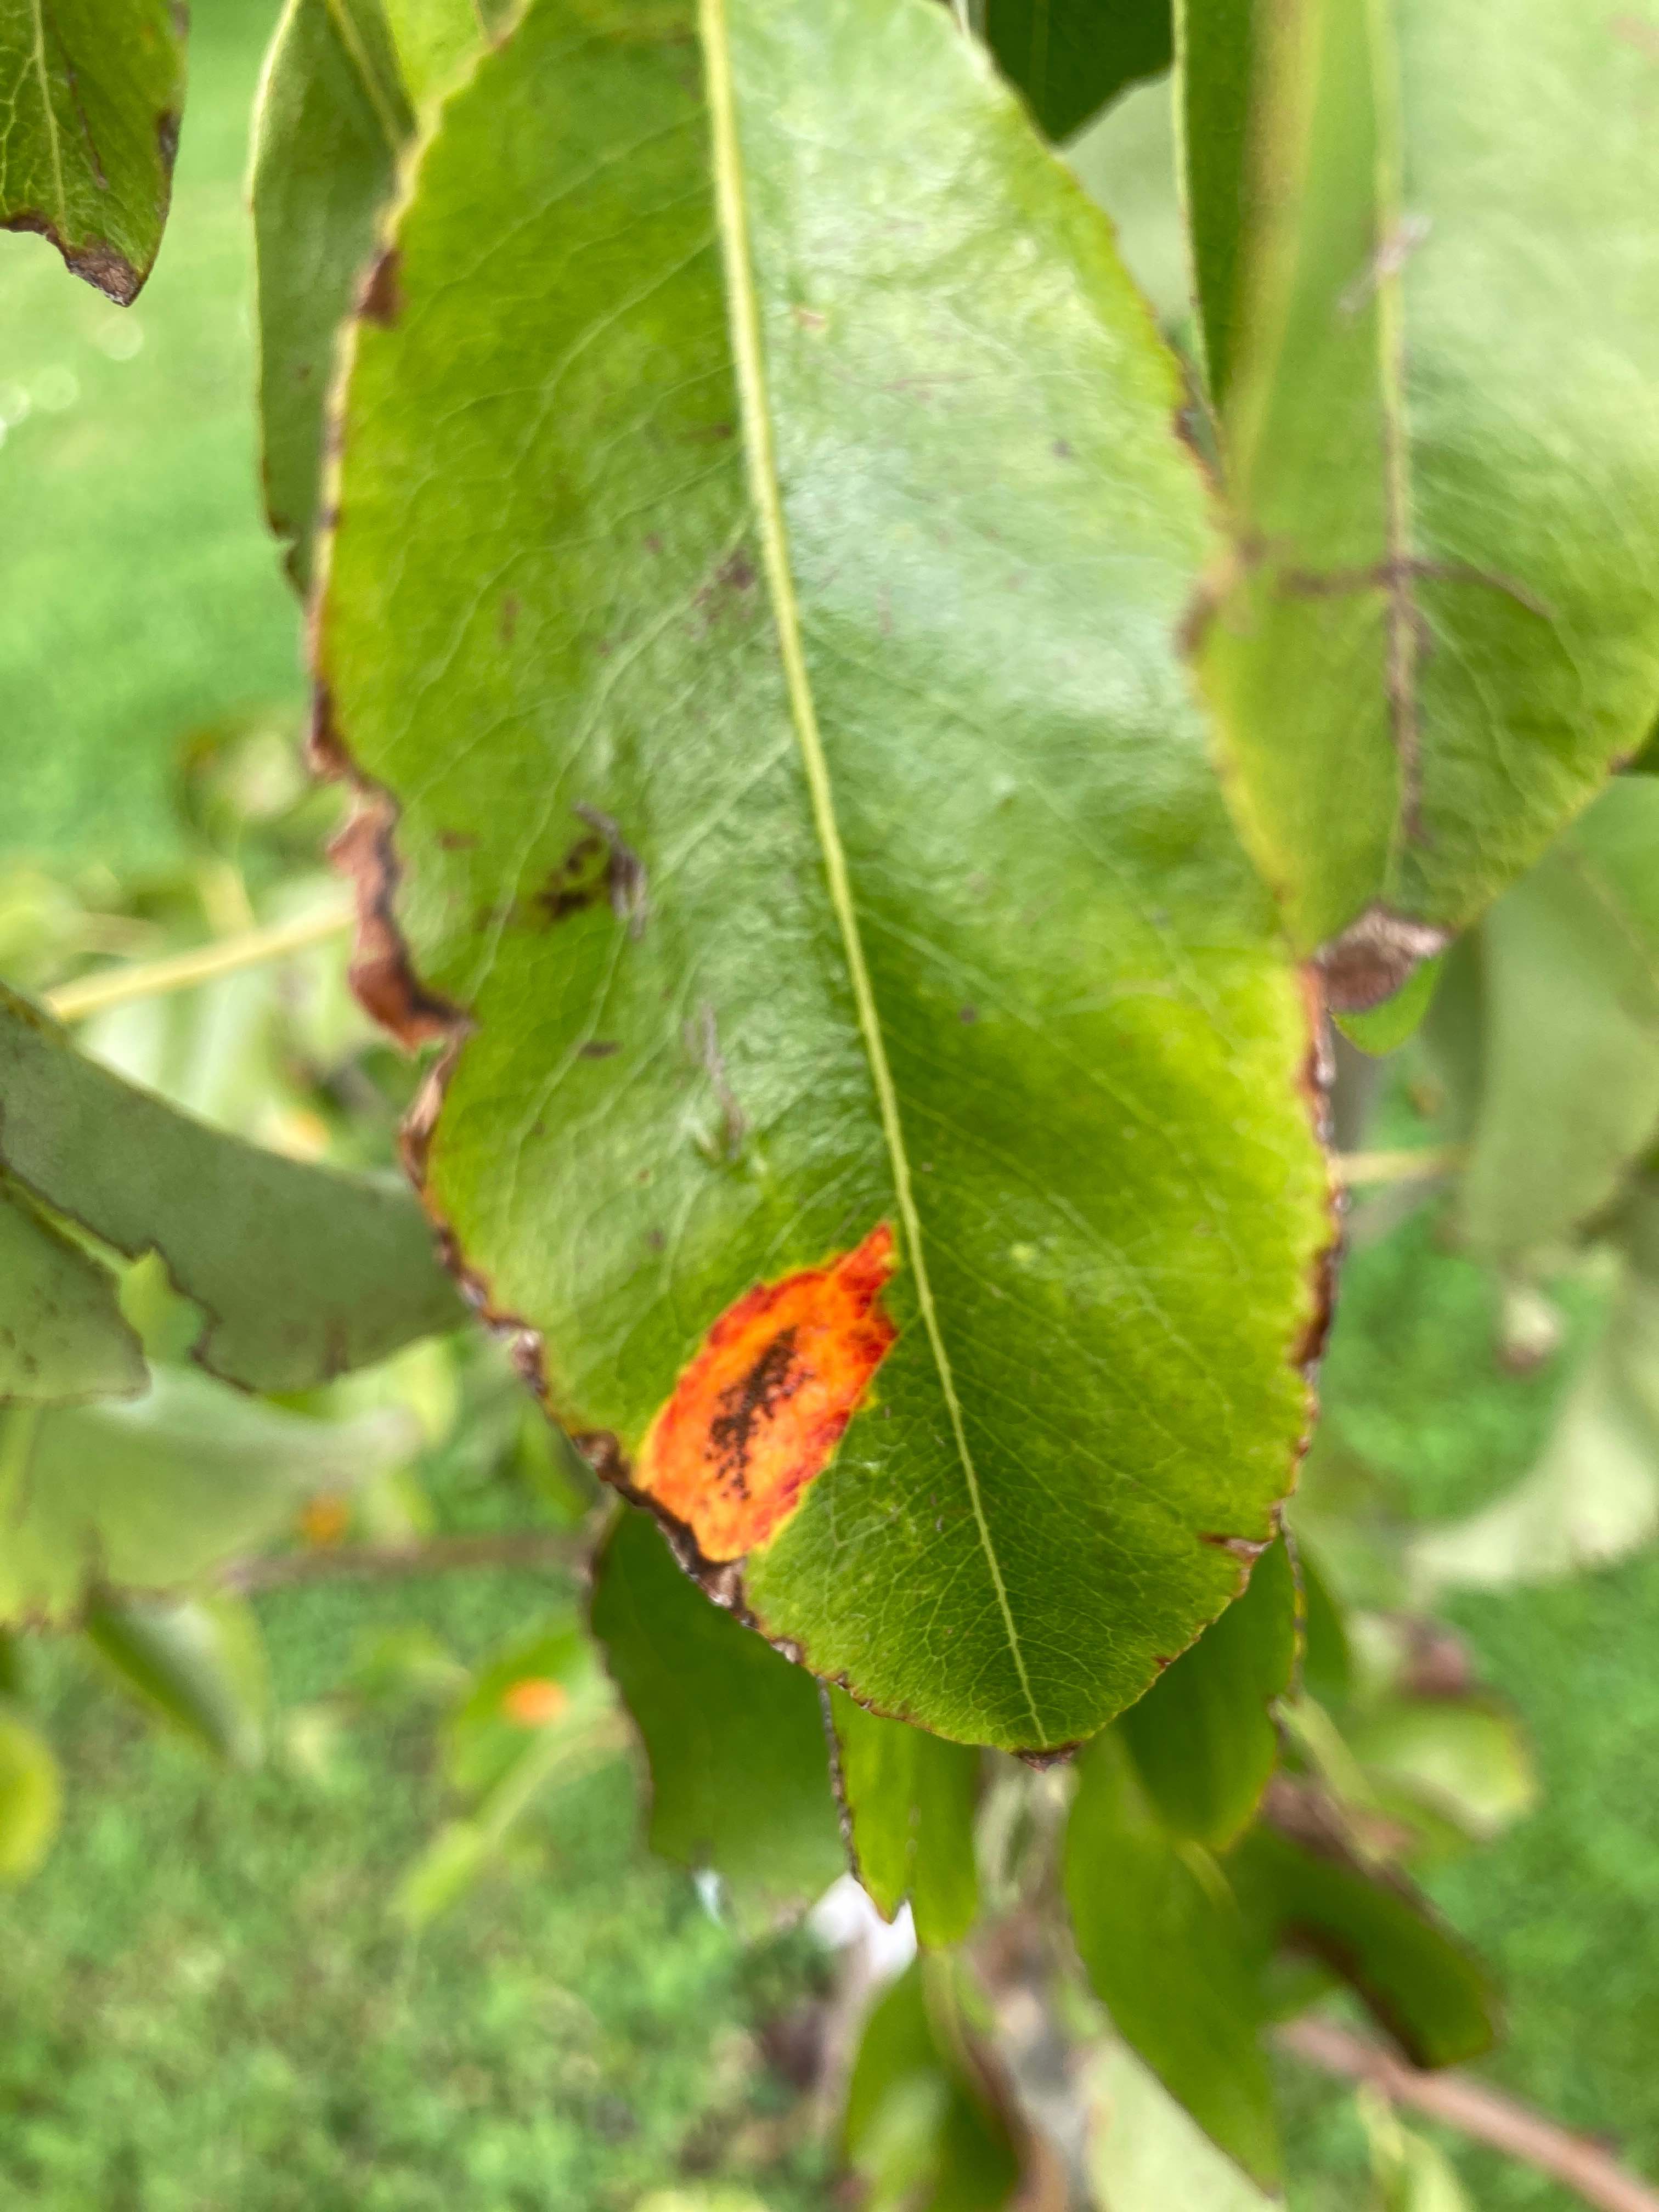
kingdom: Fungi
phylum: Basidiomycota
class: Pucciniomycetes
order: Pucciniales
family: Gymnosporangiaceae
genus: Gymnosporangium
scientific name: Gymnosporangium sabinae
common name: pæregitter-bævrerust
